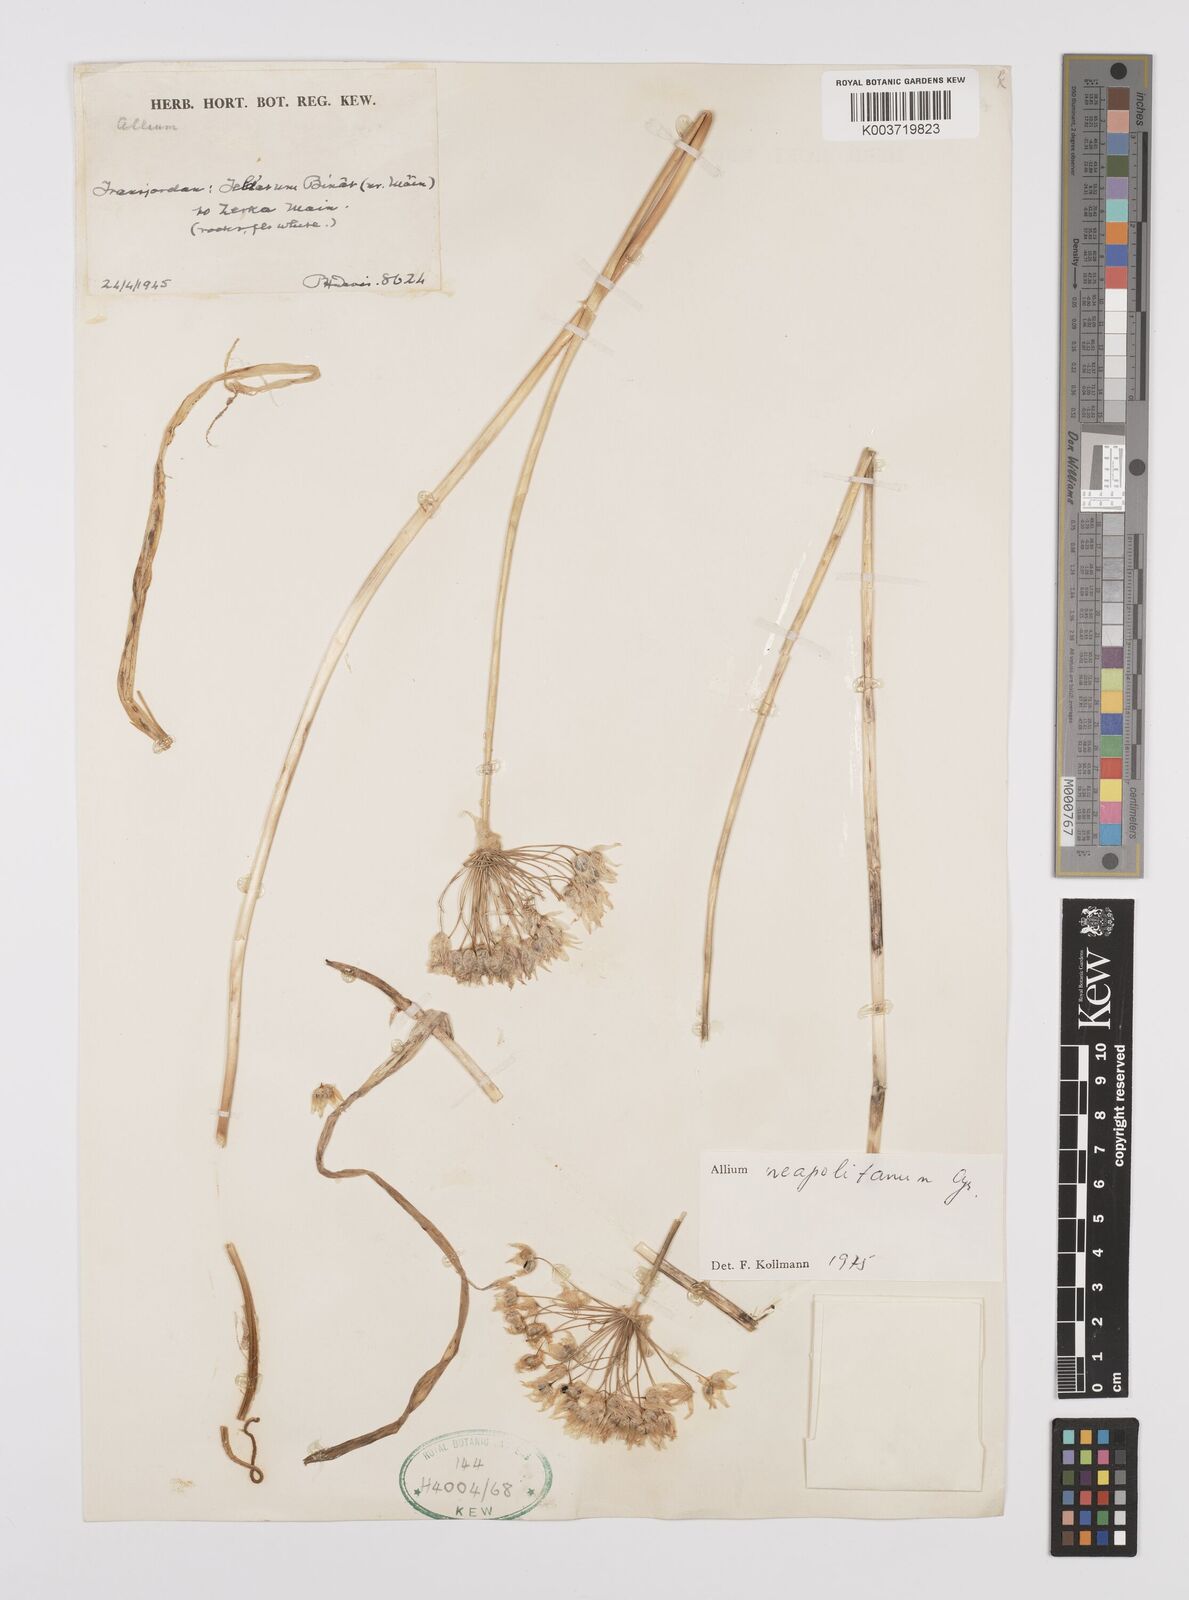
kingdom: Plantae
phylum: Tracheophyta
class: Liliopsida
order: Asparagales
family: Amaryllidaceae
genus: Allium
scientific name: Allium neapolitanum
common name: Neapolitan garlic
